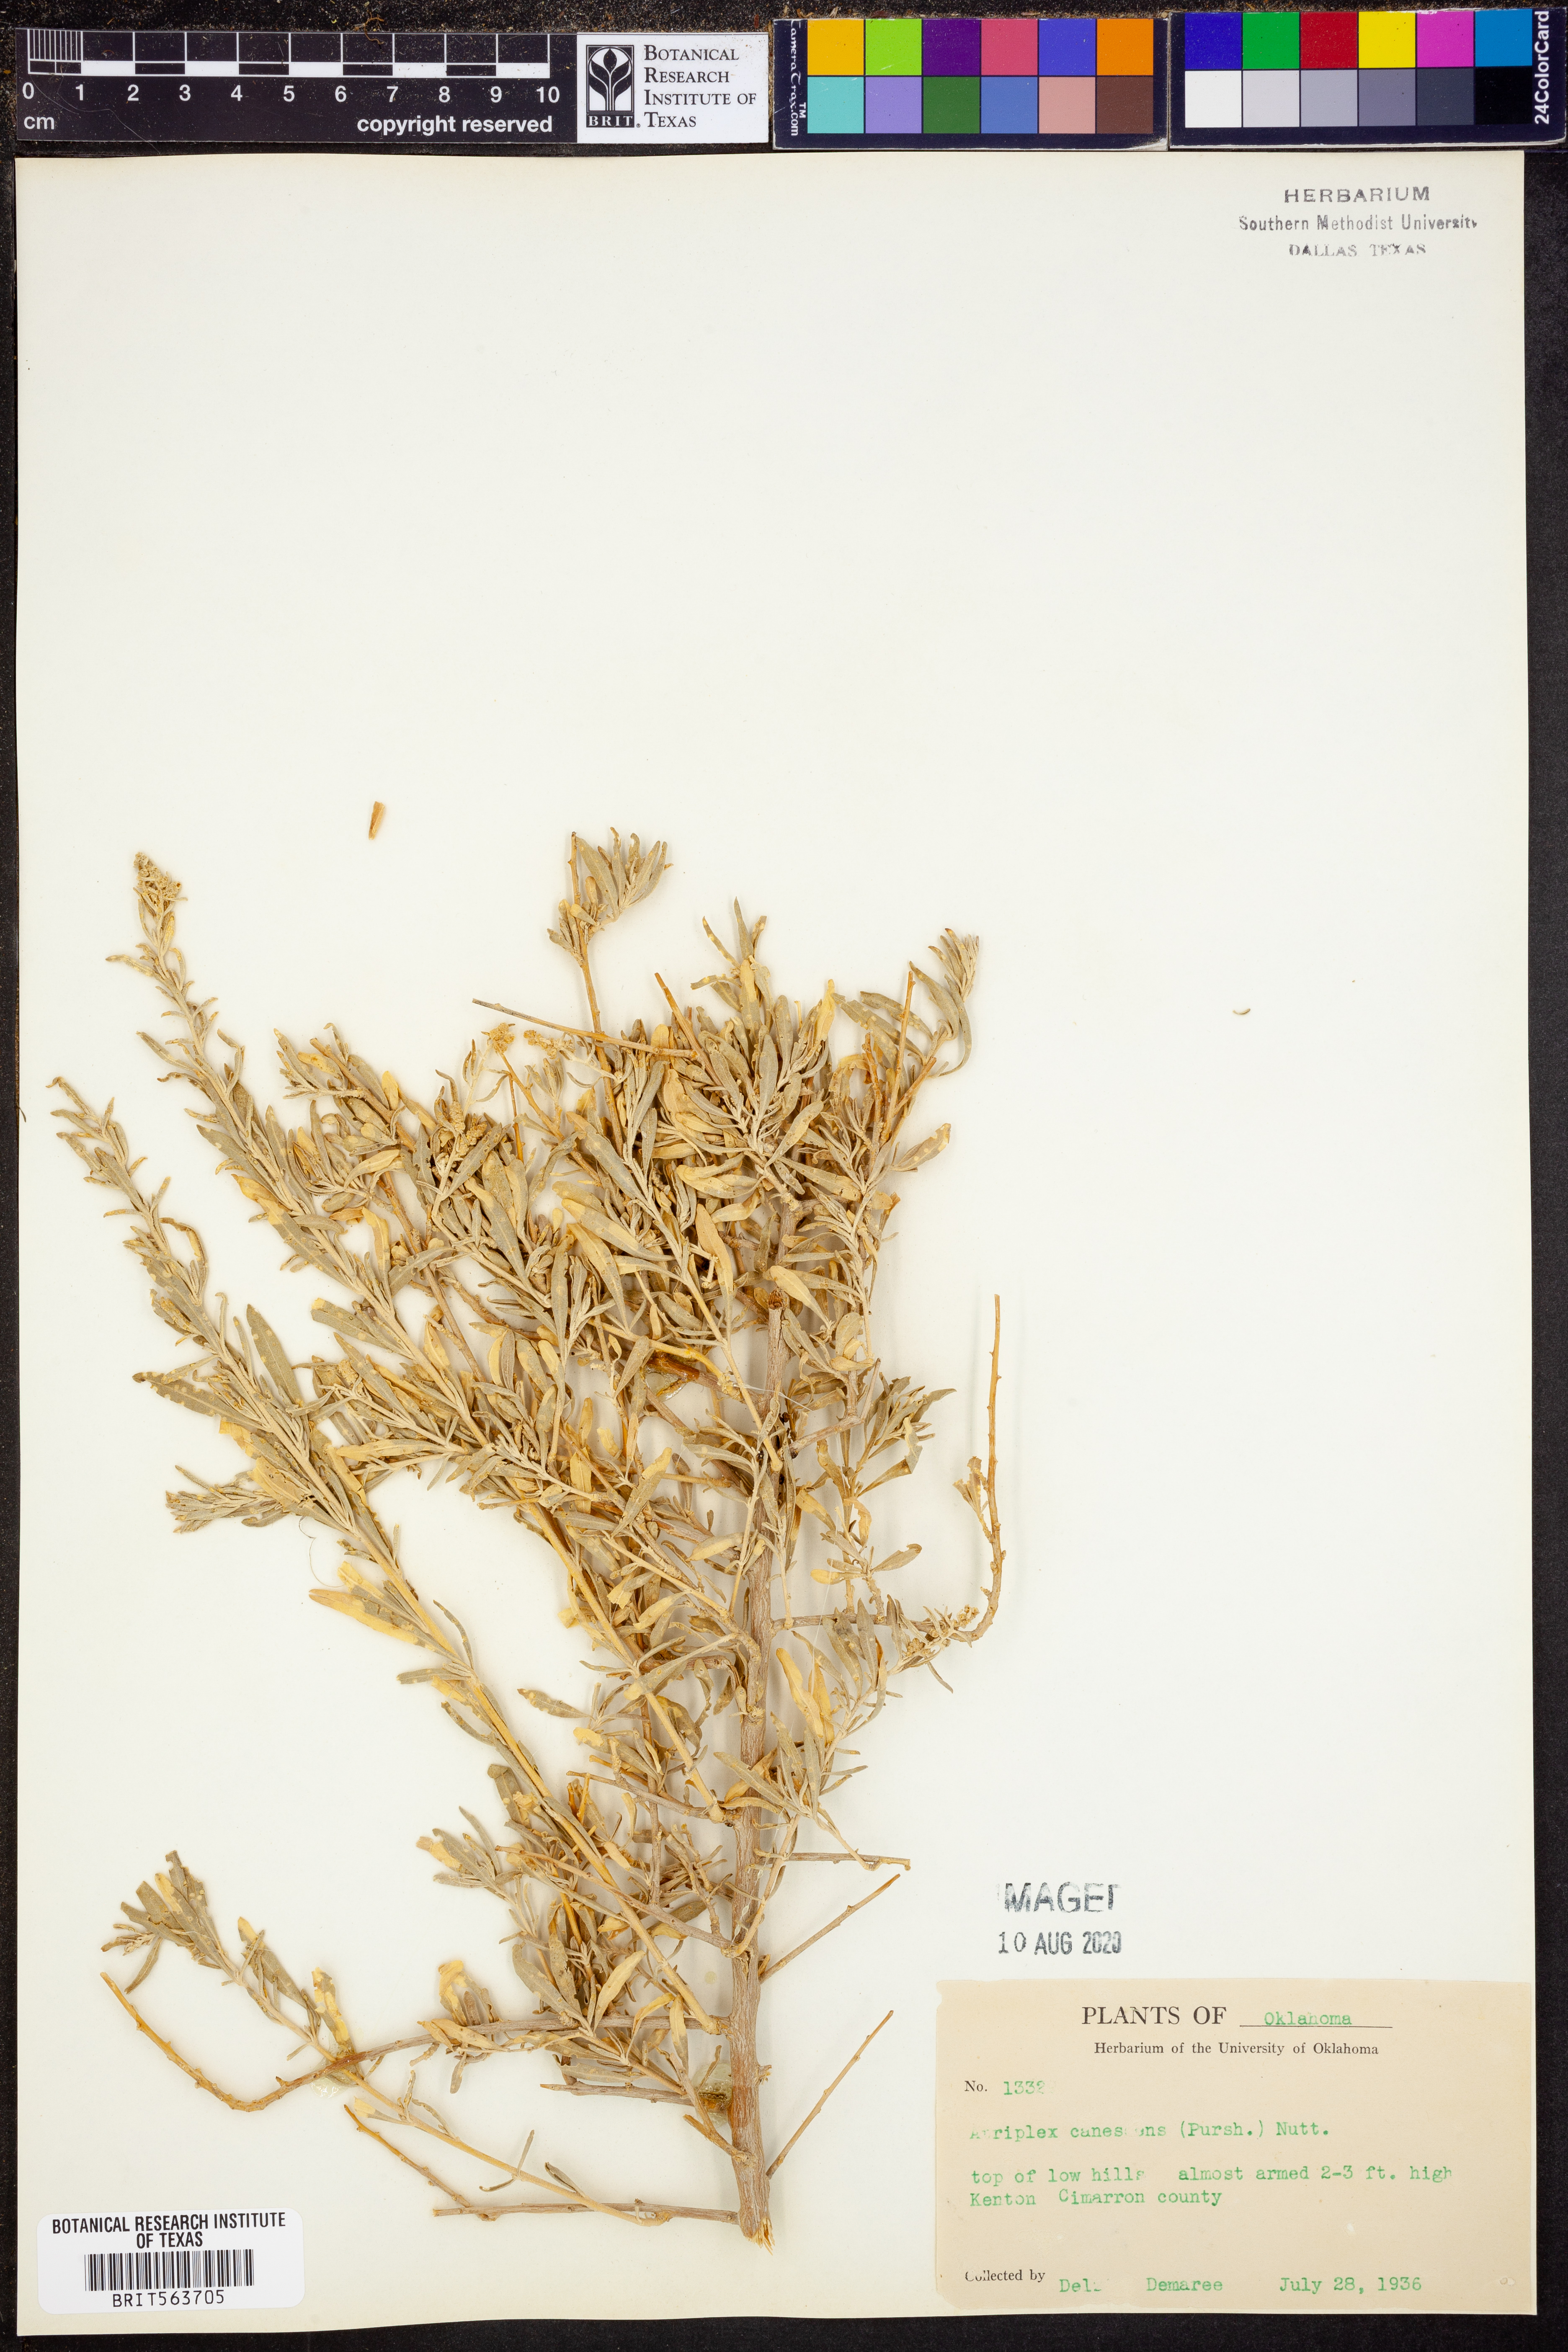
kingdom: Plantae
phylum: Tracheophyta
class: Magnoliopsida
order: Caryophyllales
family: Amaranthaceae
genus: Atriplex
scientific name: Atriplex canescens
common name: Four-wing saltbush
